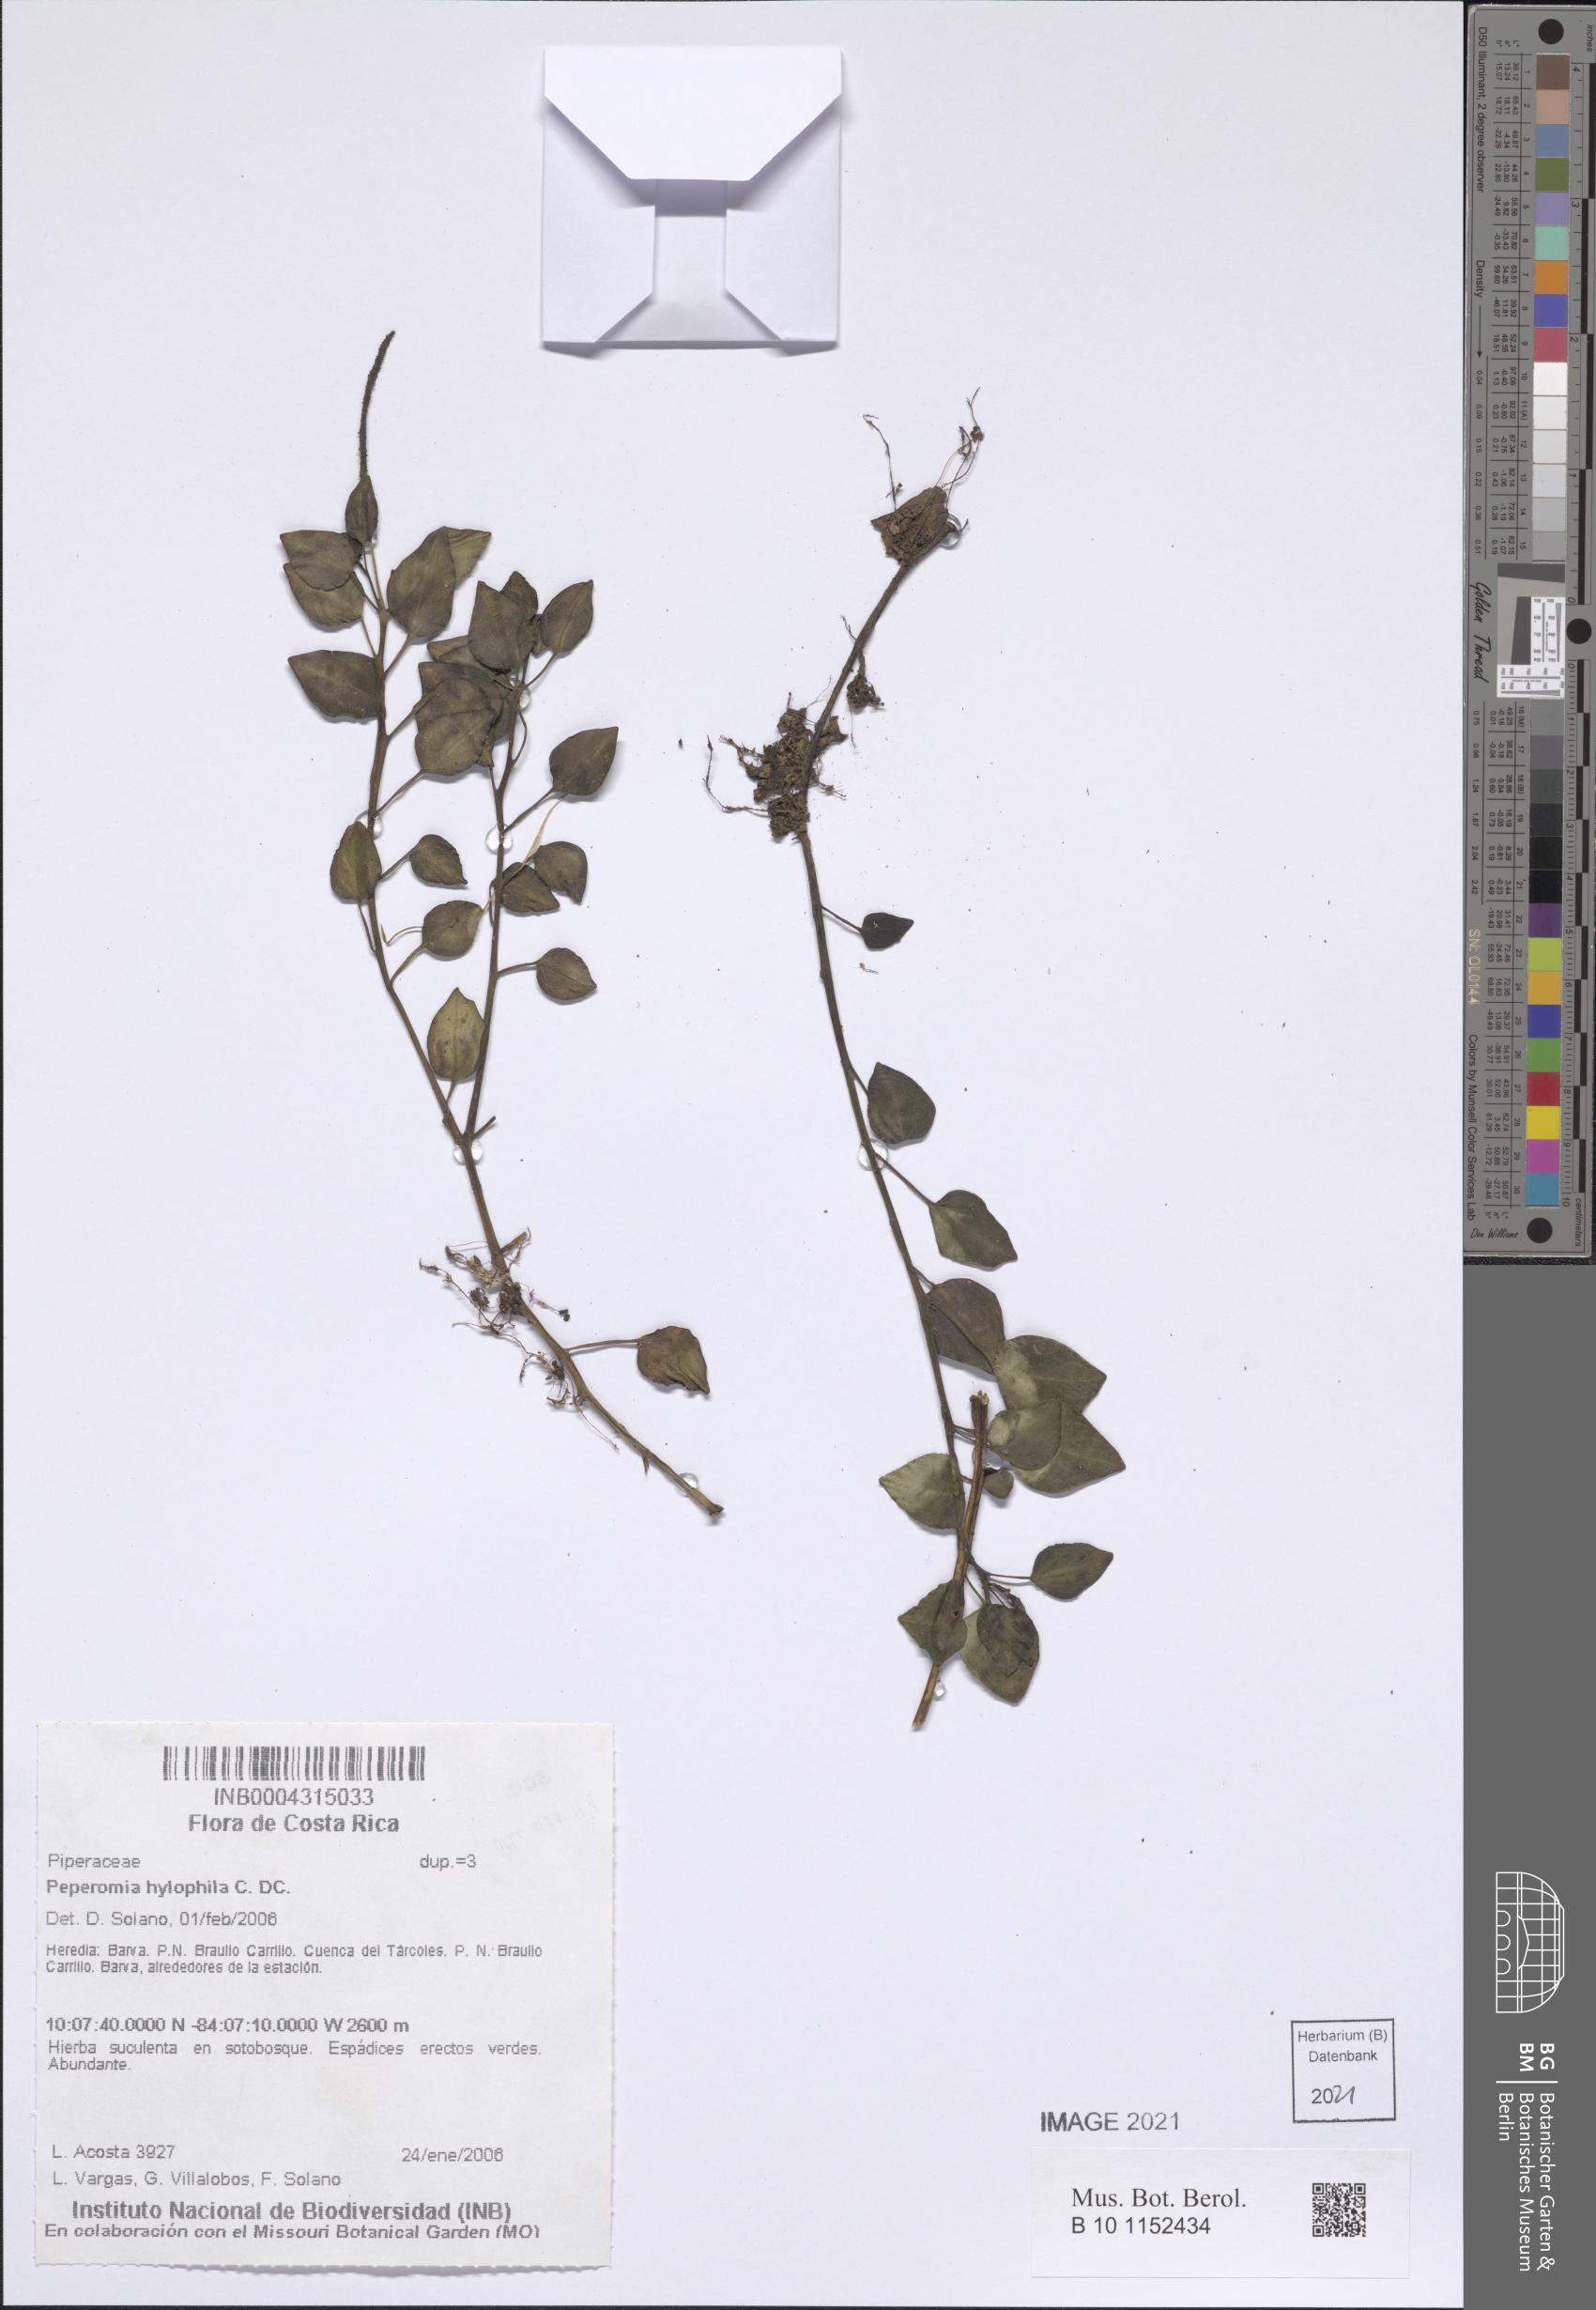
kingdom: Plantae
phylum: Tracheophyta
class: Magnoliopsida
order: Piperales
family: Piperaceae
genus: Peperomia
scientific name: Peperomia hylophila
